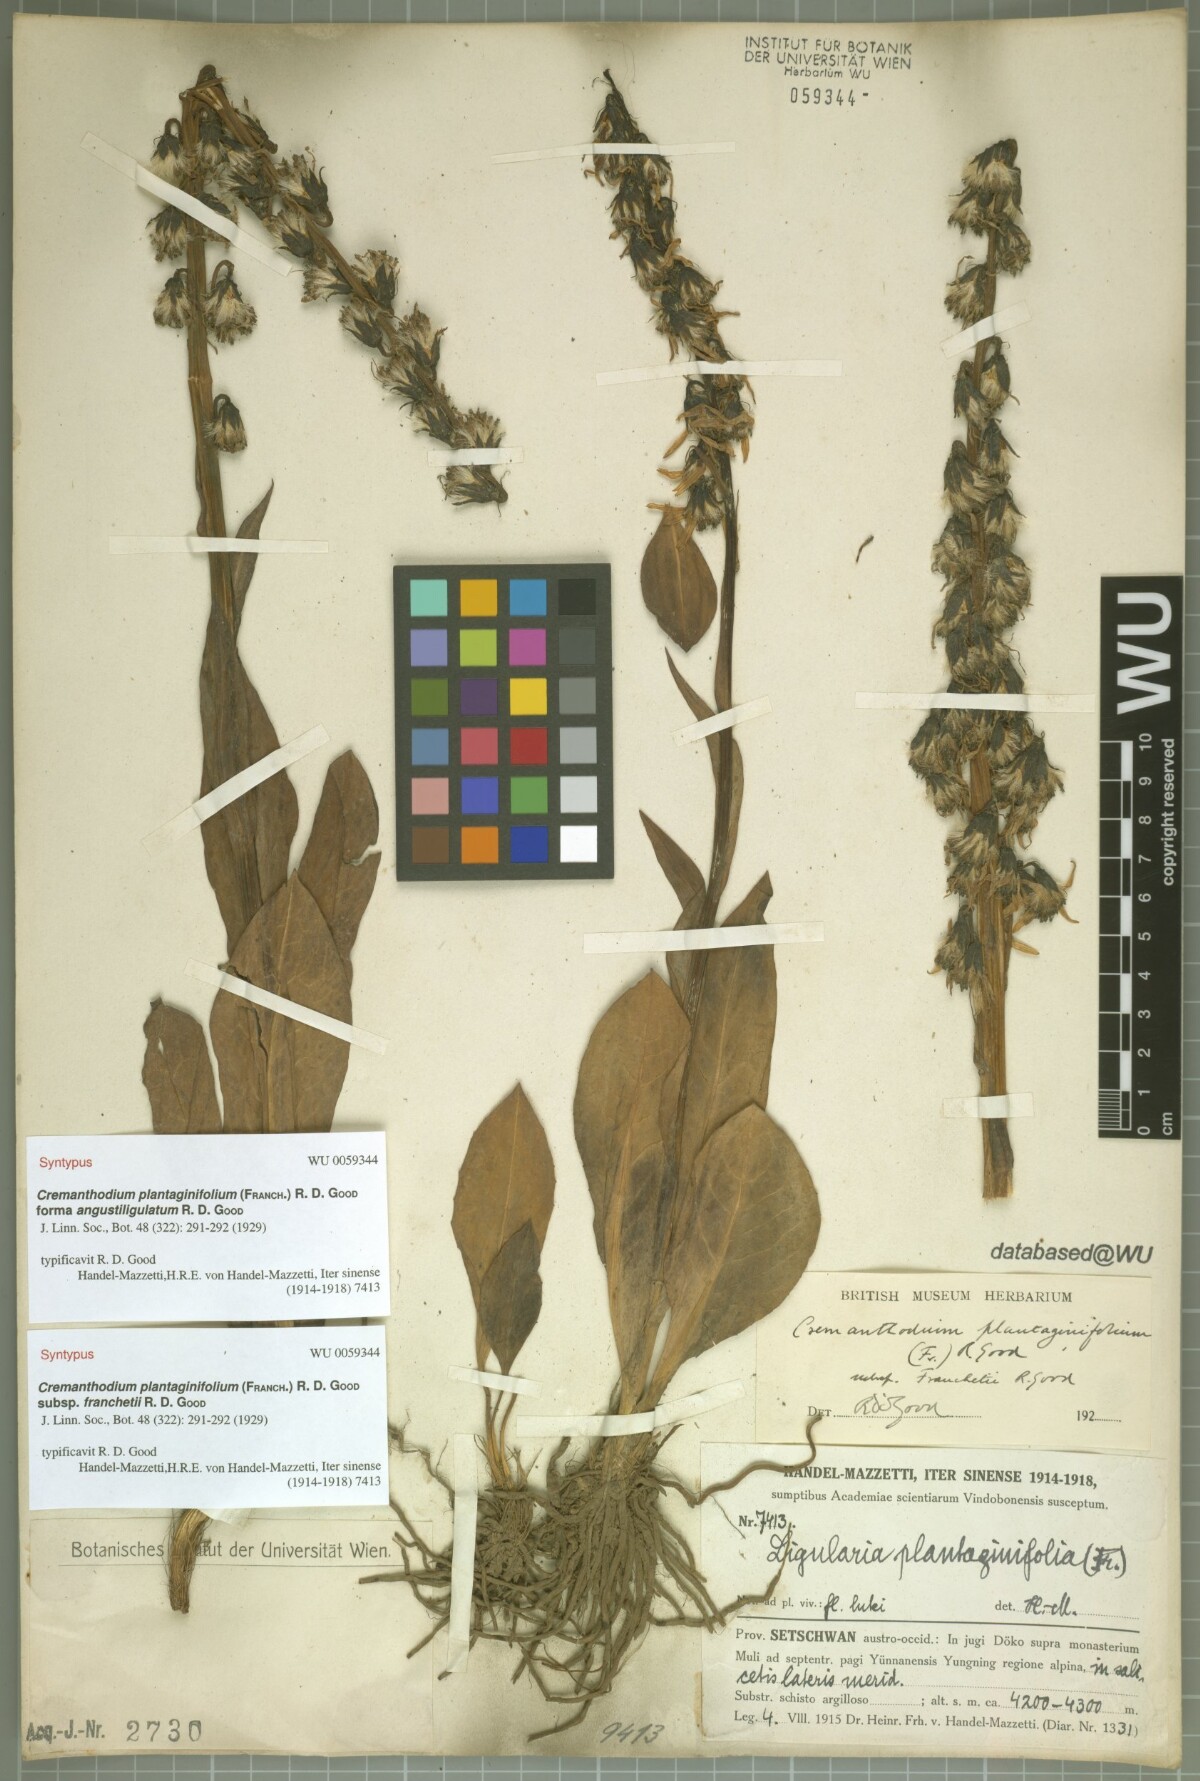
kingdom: Plantae
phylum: Tracheophyta
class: Magnoliopsida
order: Asterales
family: Asteraceae
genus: Ligularia
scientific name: Ligularia virgaurea
